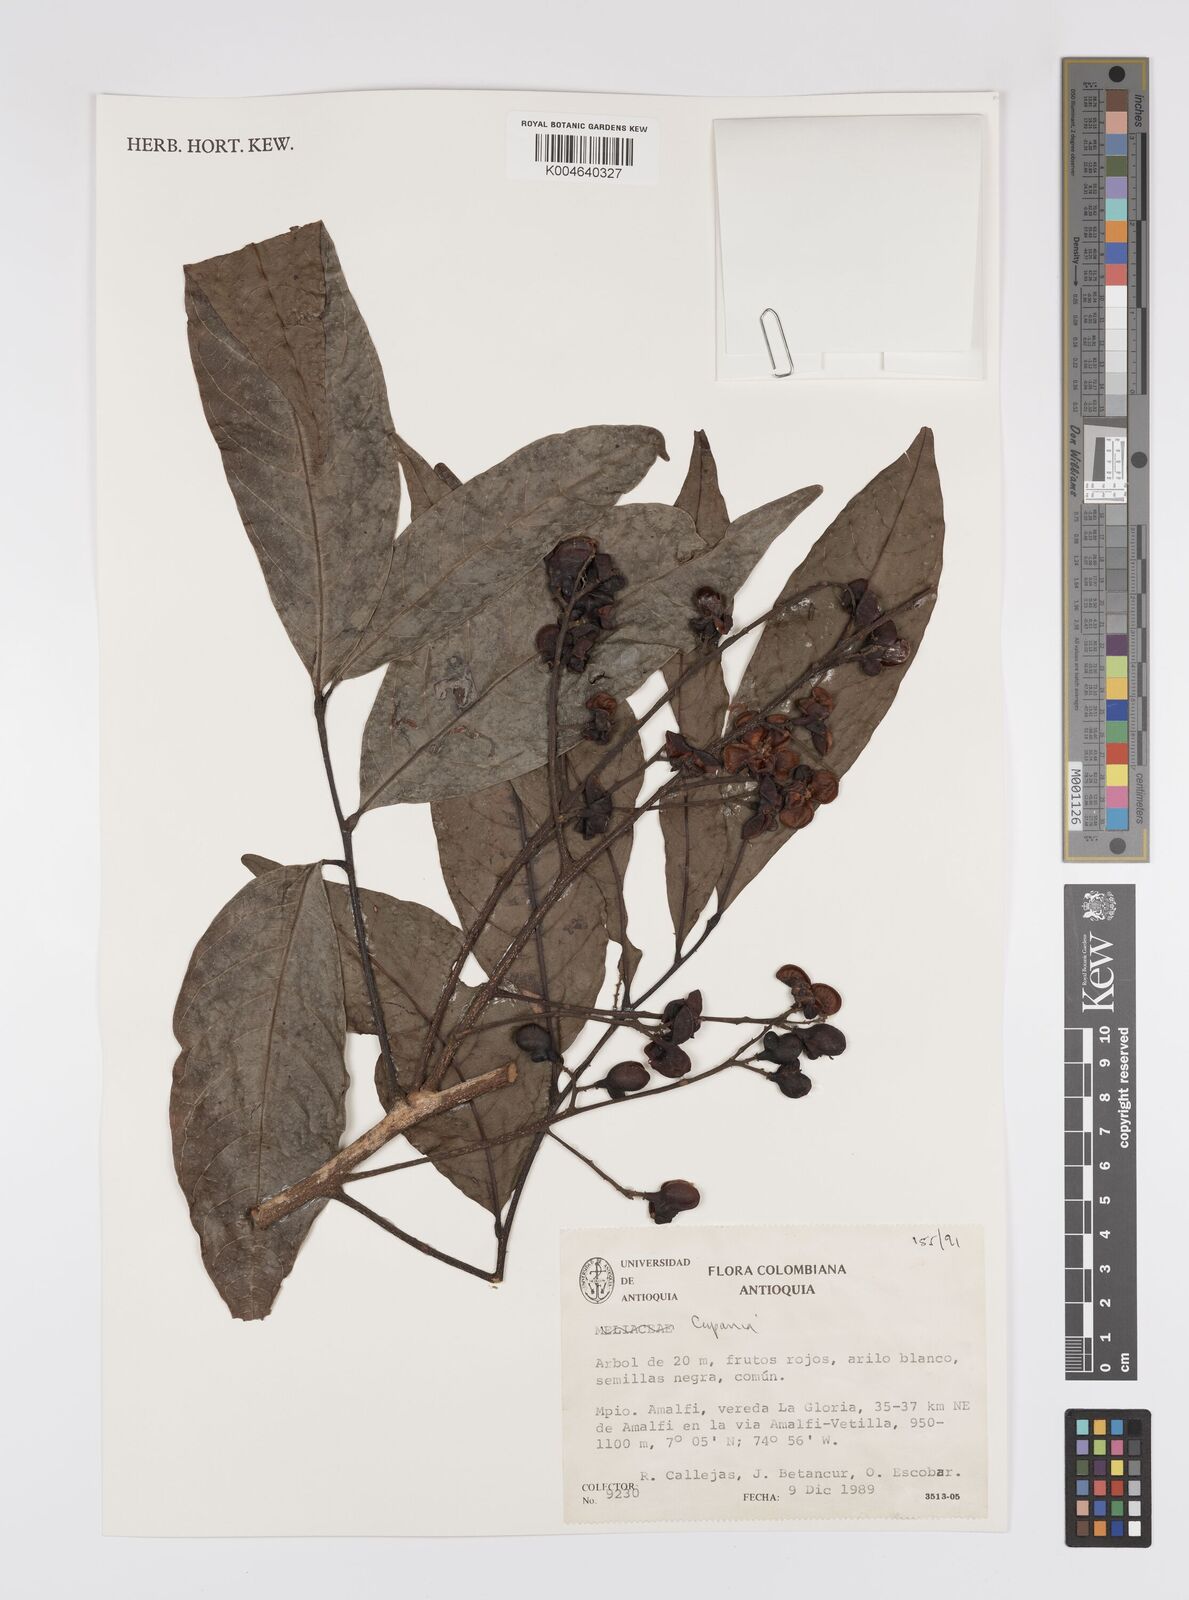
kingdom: Plantae
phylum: Tracheophyta
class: Magnoliopsida
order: Sapindales
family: Sapindaceae
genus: Cupania
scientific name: Cupania
